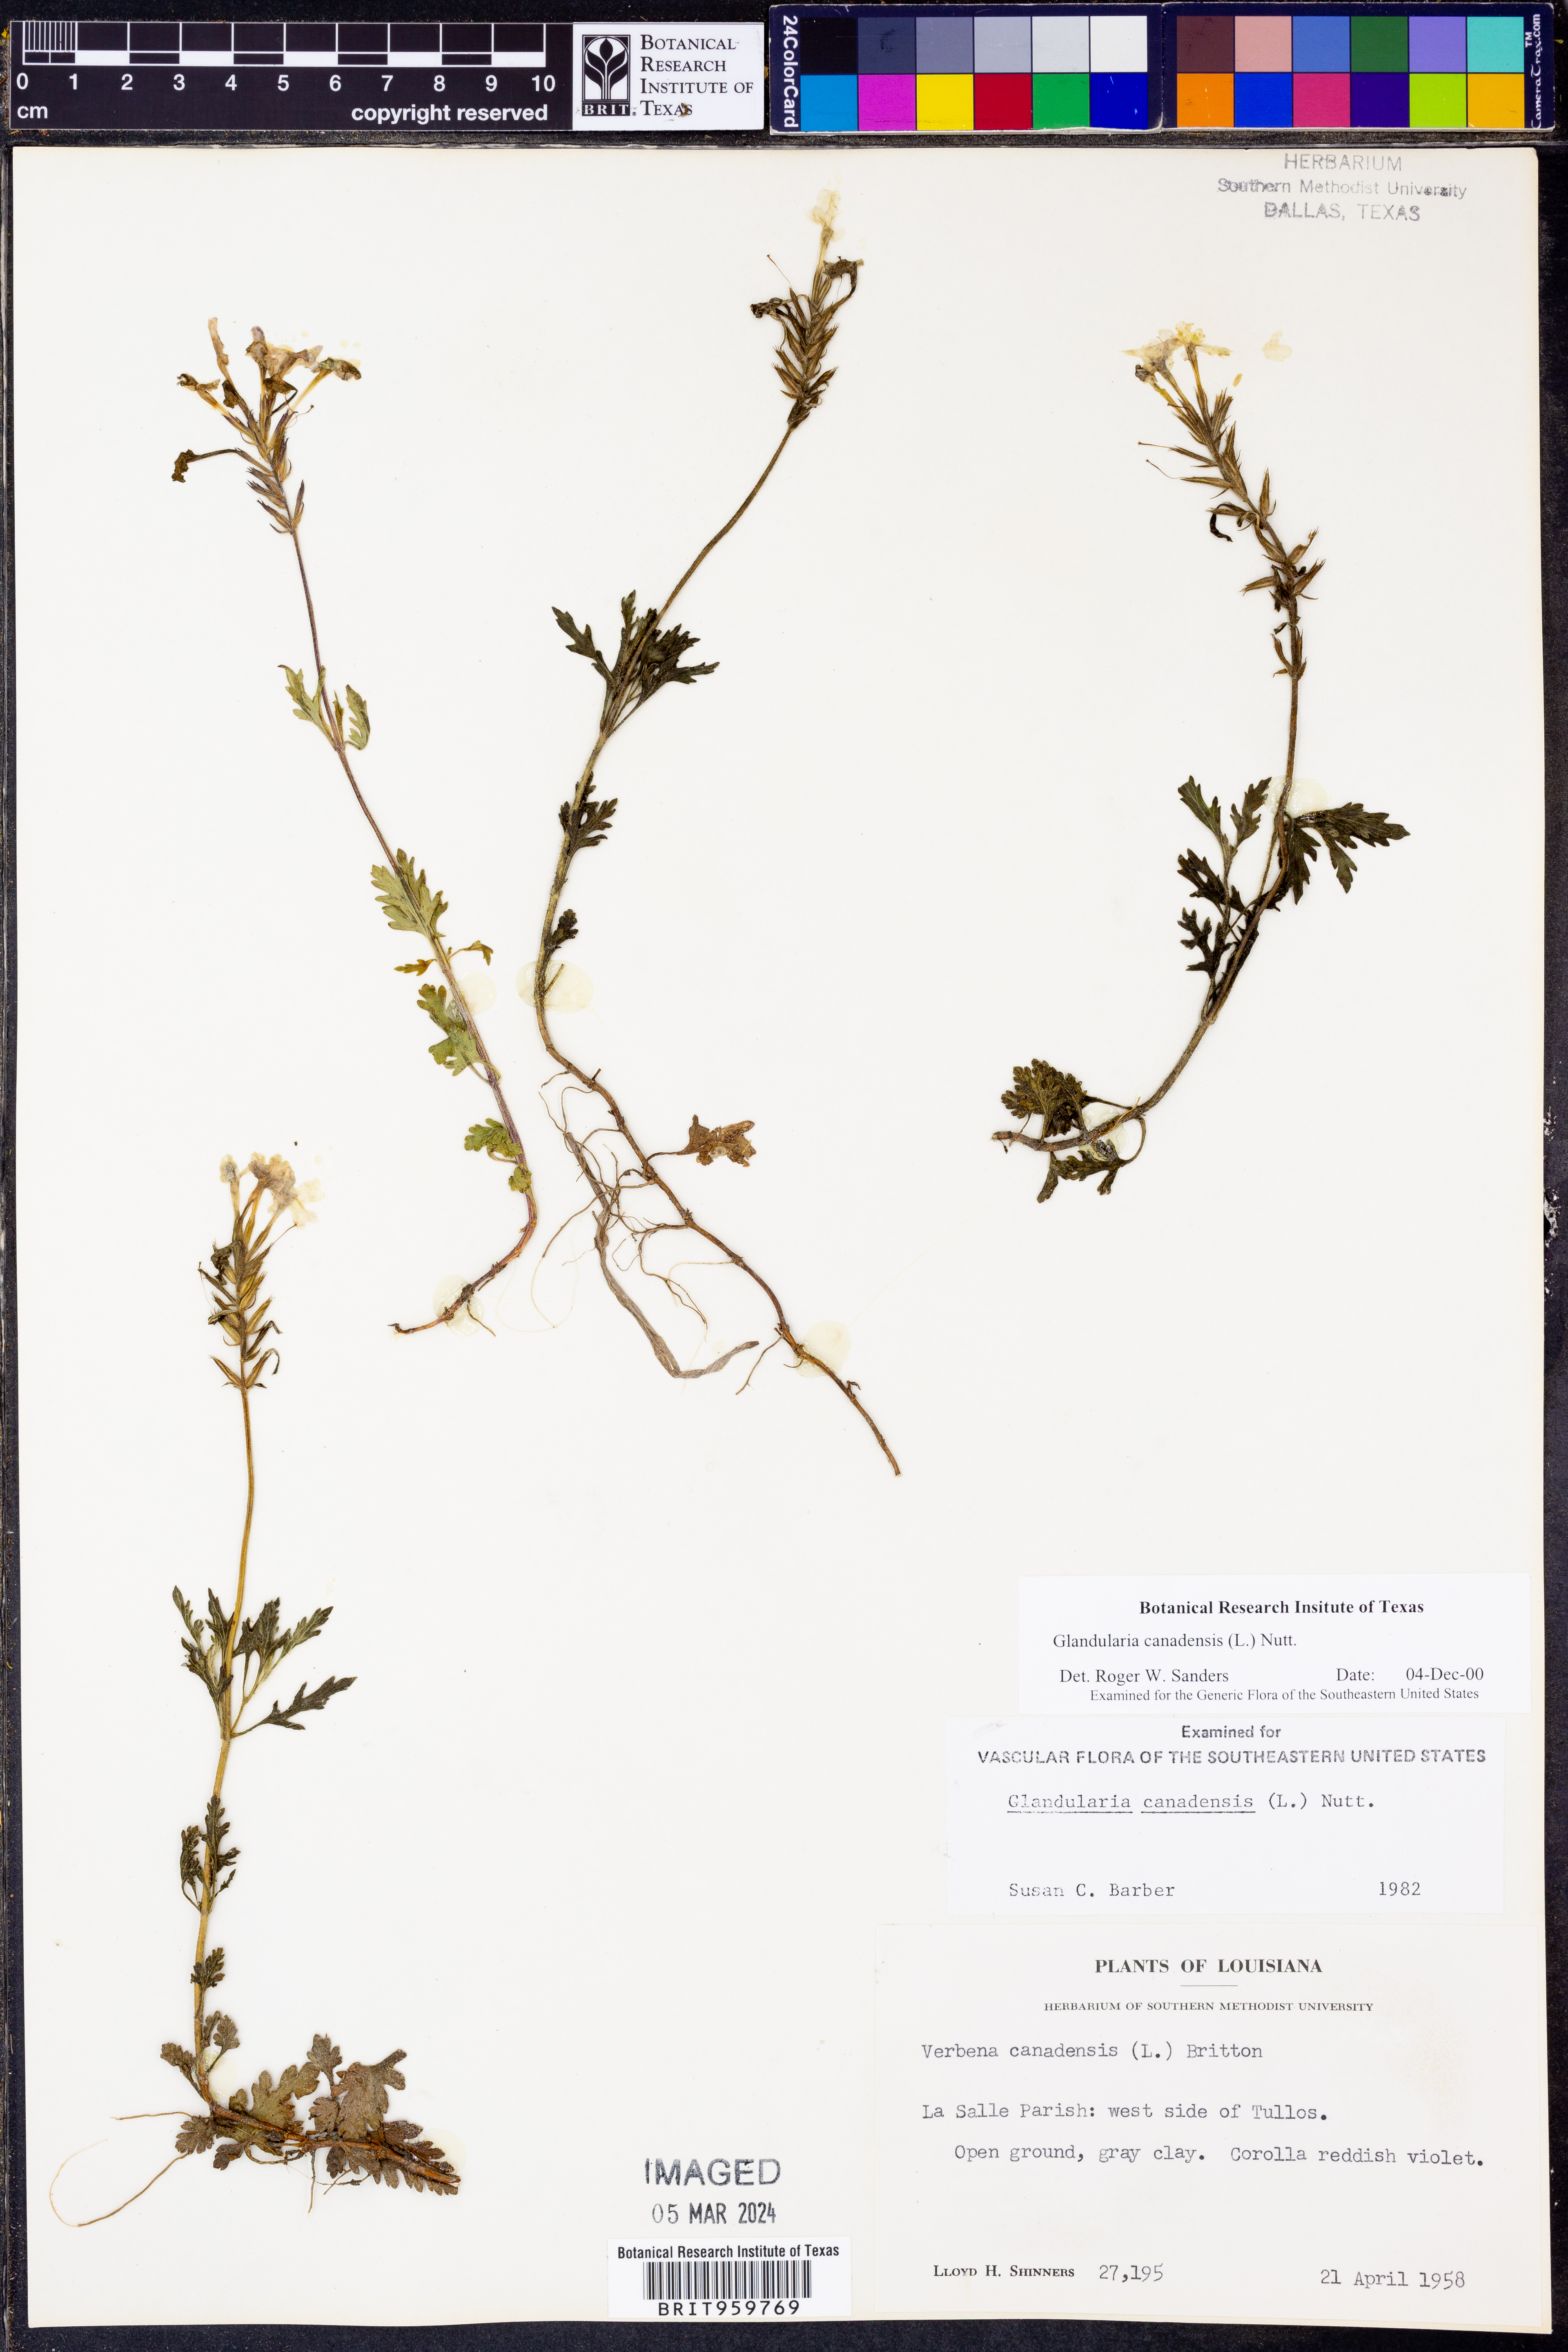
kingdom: Plantae
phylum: Tracheophyta
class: Magnoliopsida
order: Lamiales
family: Verbenaceae
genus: Verbena
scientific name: Verbena canadensis
